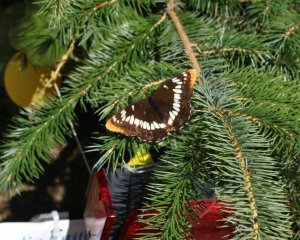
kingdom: Animalia
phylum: Arthropoda
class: Insecta
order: Lepidoptera
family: Nymphalidae
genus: Limenitis
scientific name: Limenitis lorquini
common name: Lorquin's Admiral
